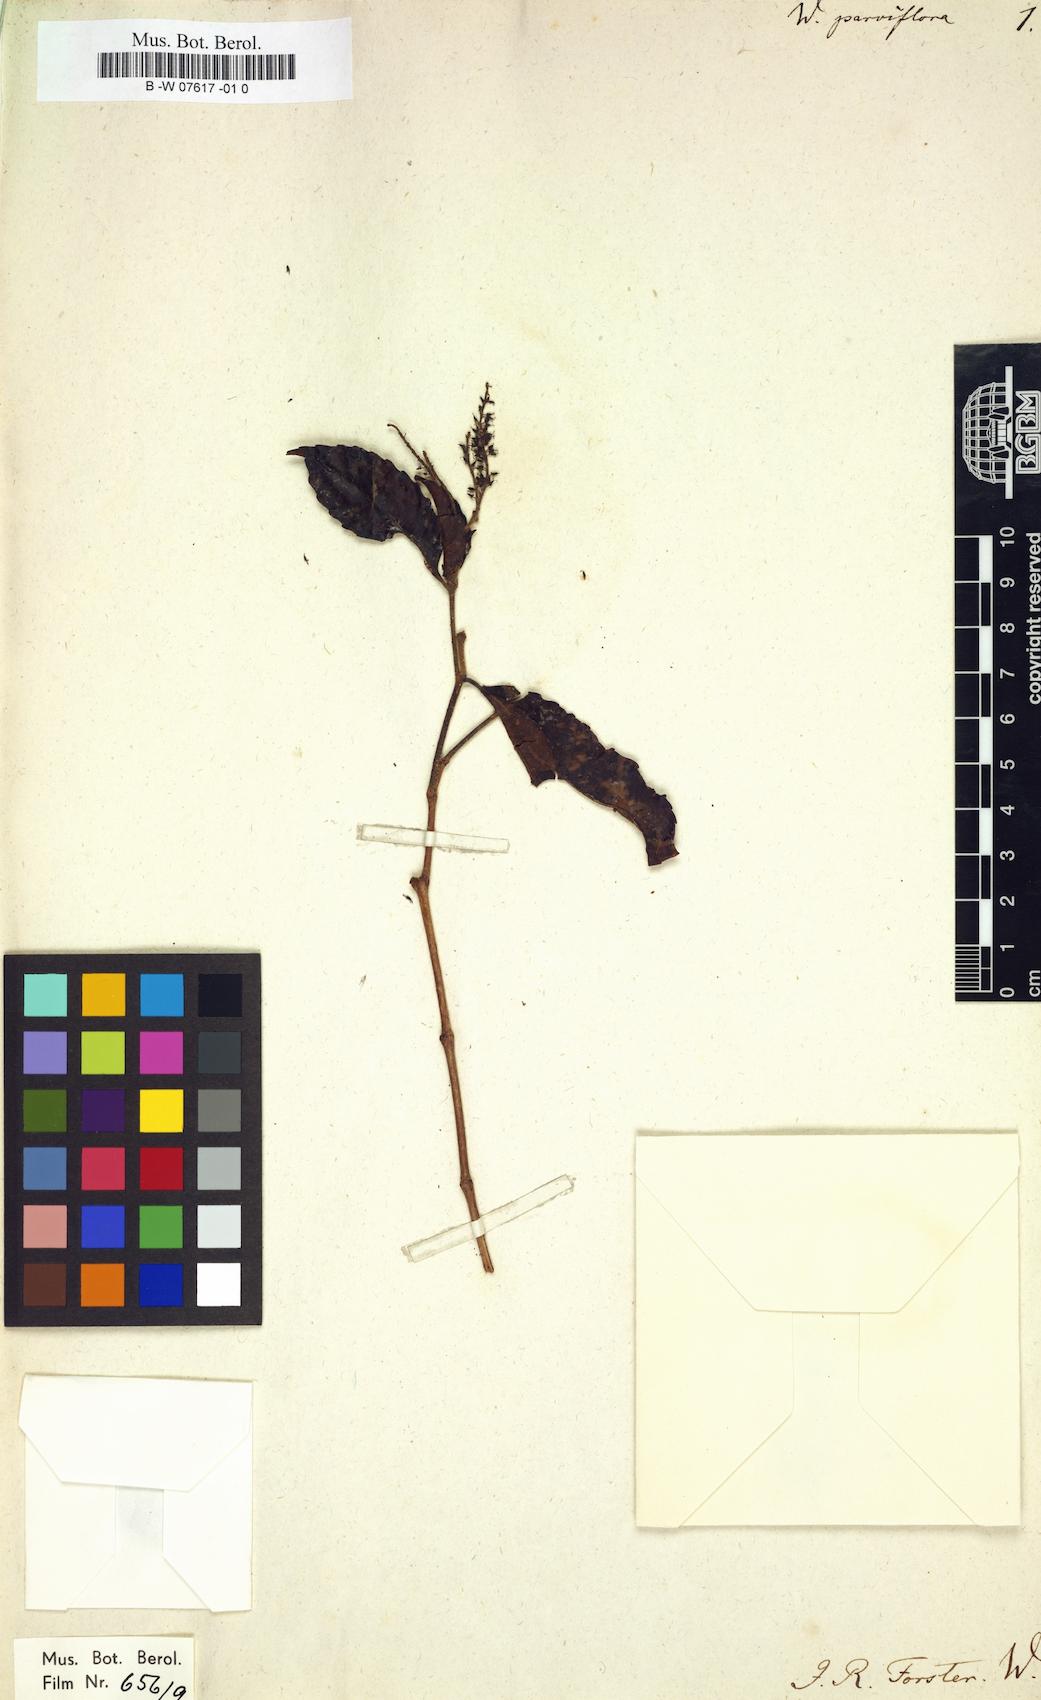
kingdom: Plantae
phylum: Tracheophyta
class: Magnoliopsida
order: Oxalidales
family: Cunoniaceae
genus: Pterophylla
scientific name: Pterophylla parviflora
